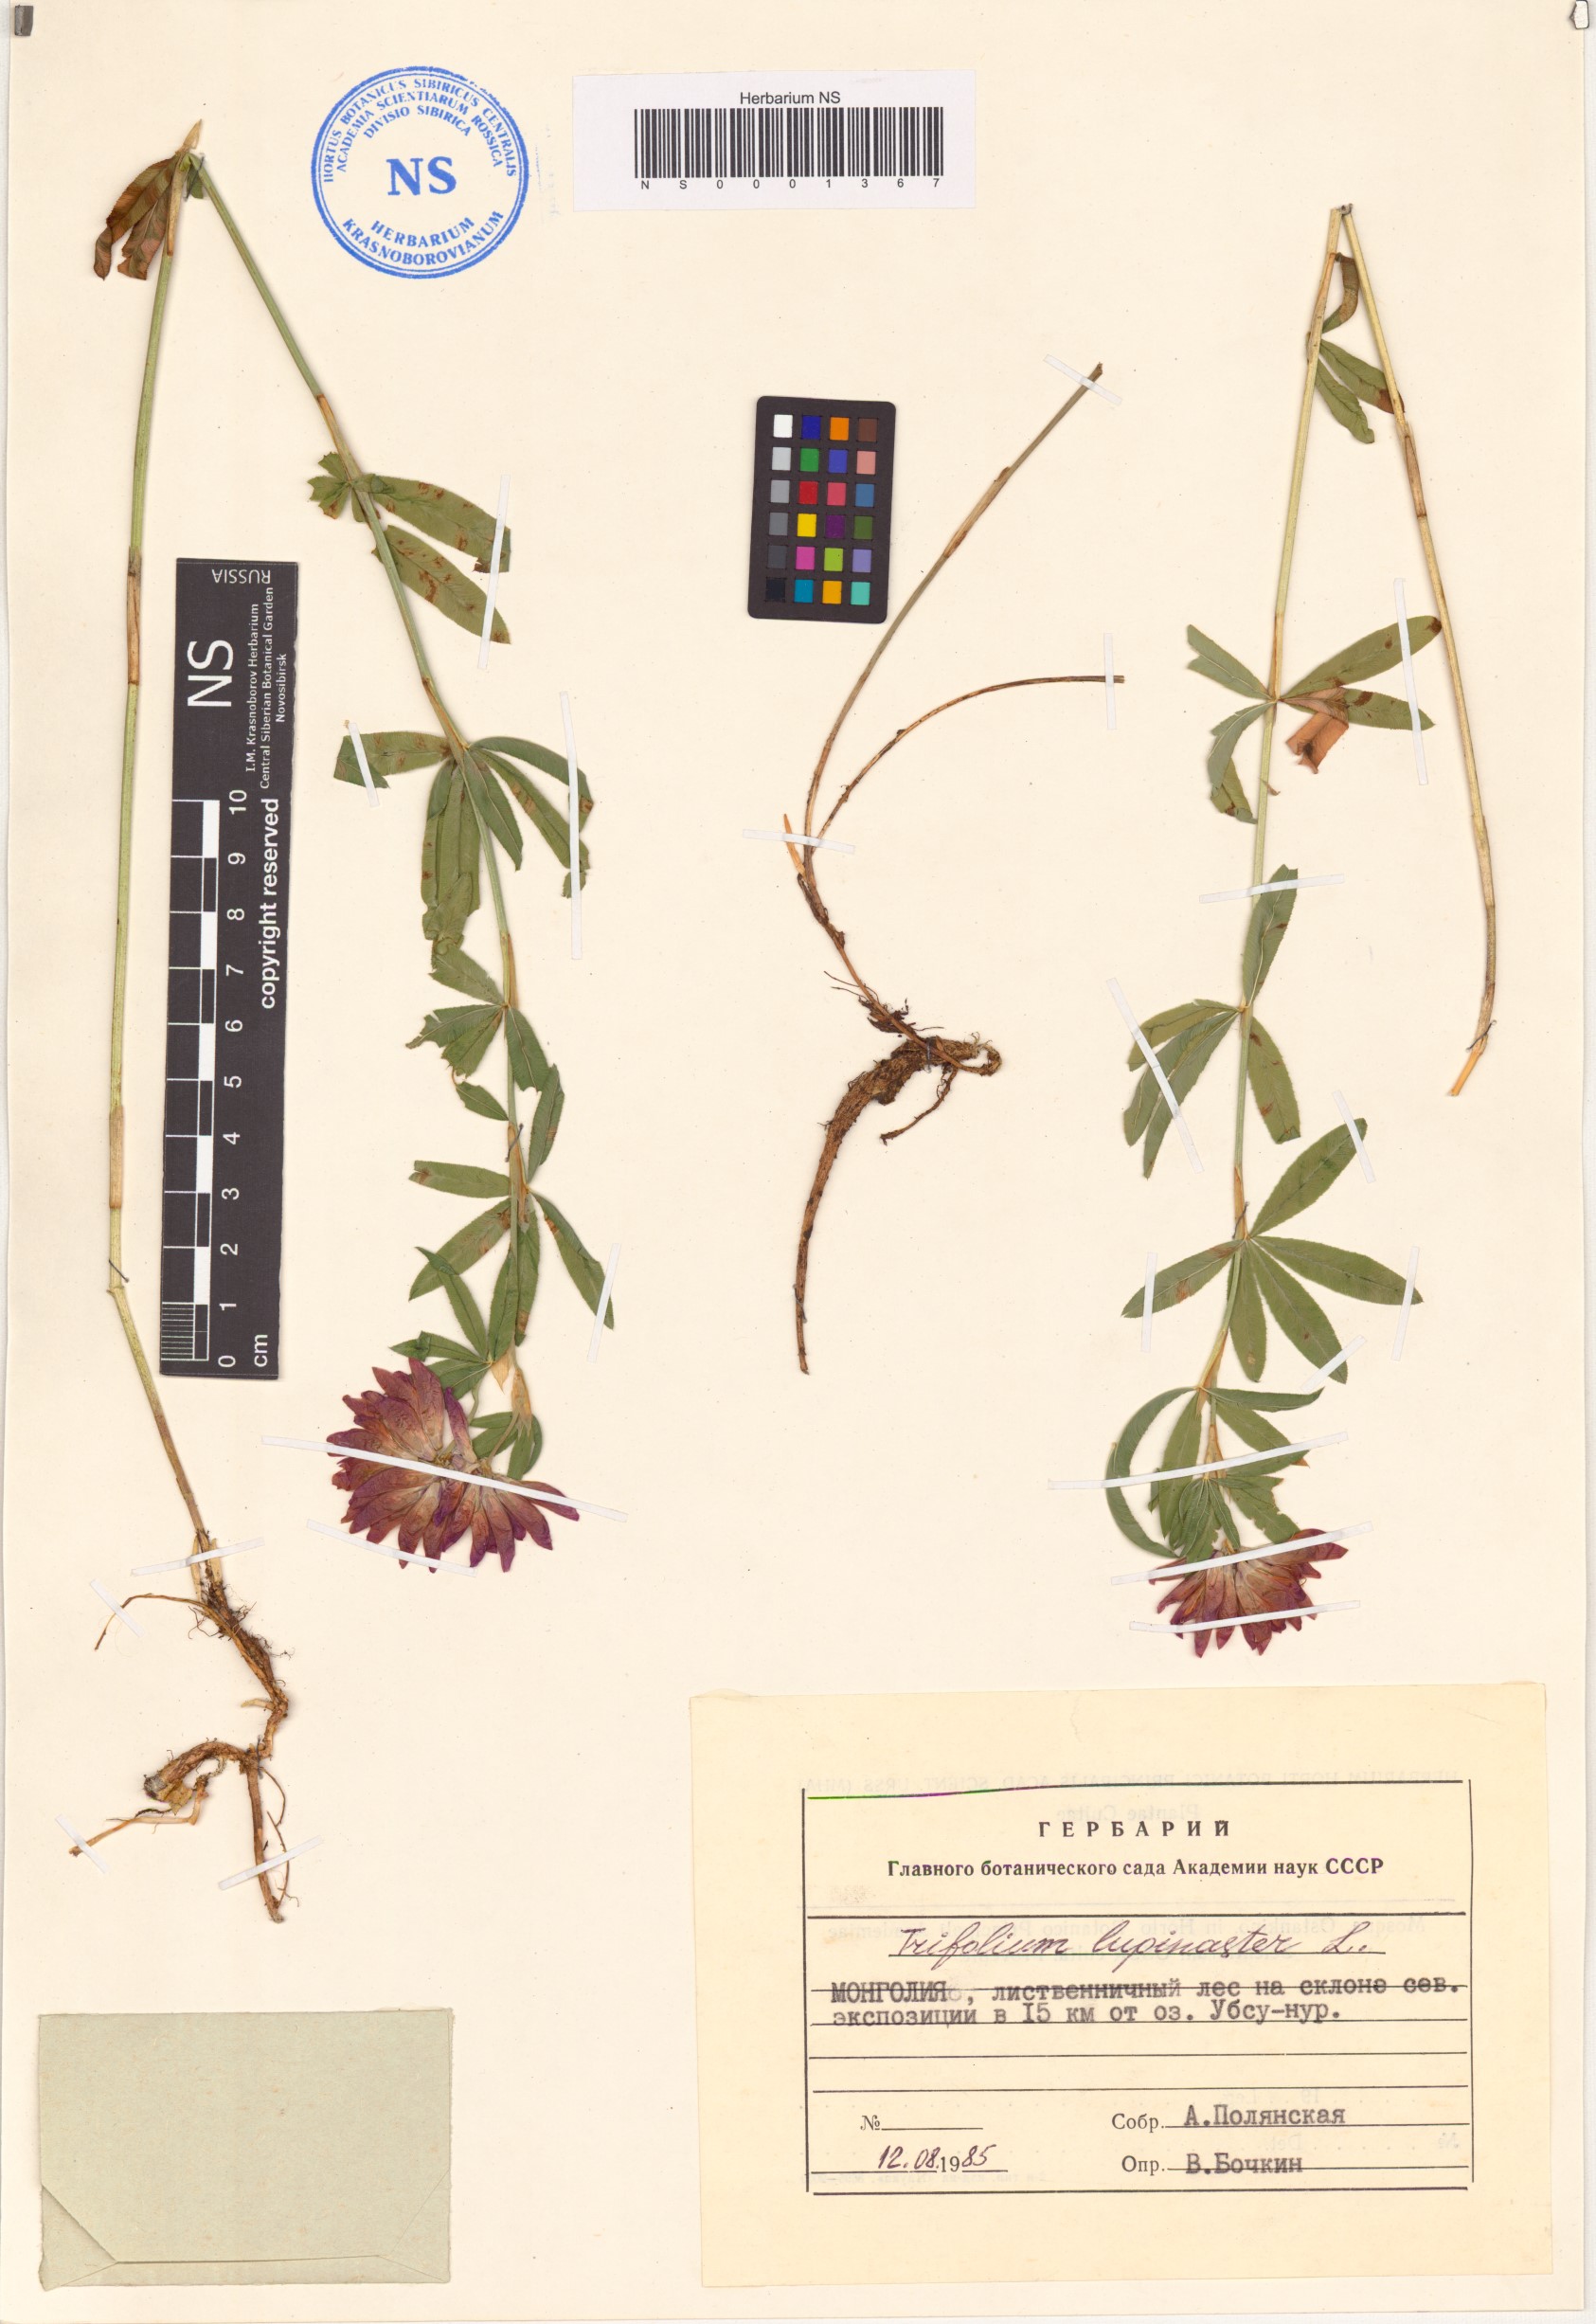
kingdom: Plantae
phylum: Tracheophyta
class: Magnoliopsida
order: Fabales
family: Fabaceae
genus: Trifolium
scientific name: Trifolium lupinaster
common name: Lupine clover
